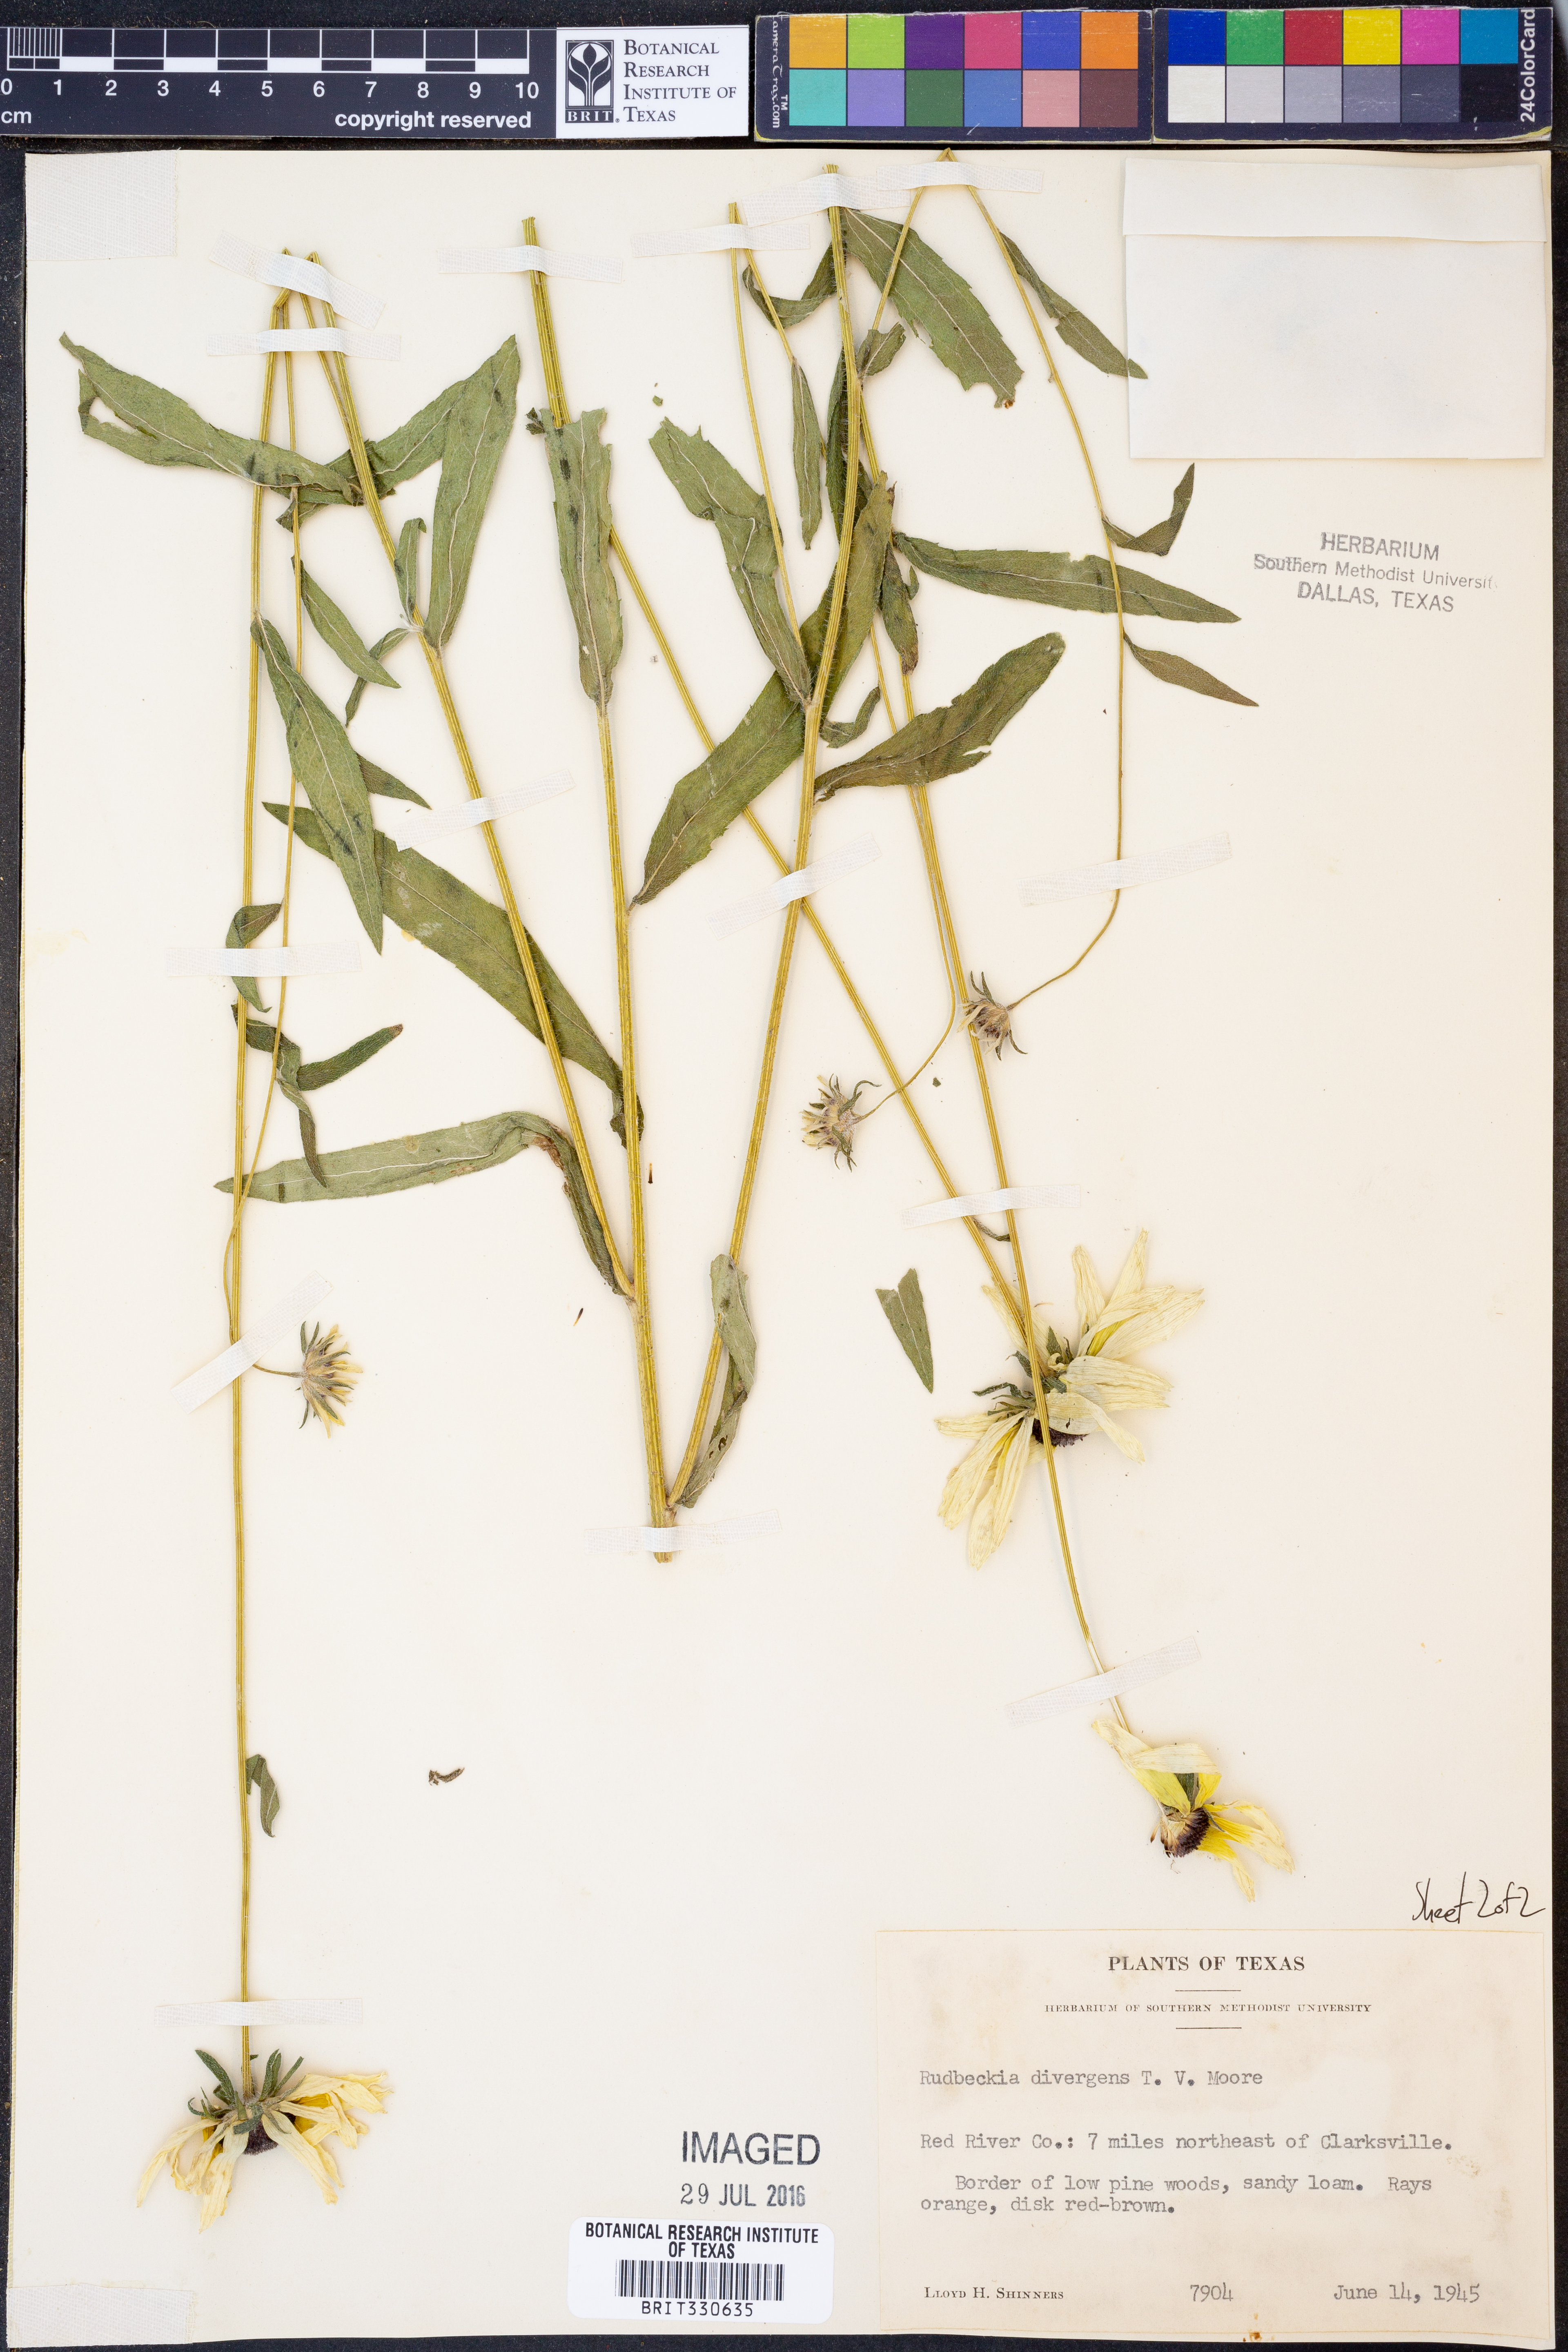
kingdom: Plantae
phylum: Tracheophyta
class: Magnoliopsida
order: Asterales
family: Asteraceae
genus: Rudbeckia
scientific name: Rudbeckia hirta
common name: Black-eyed-susan
